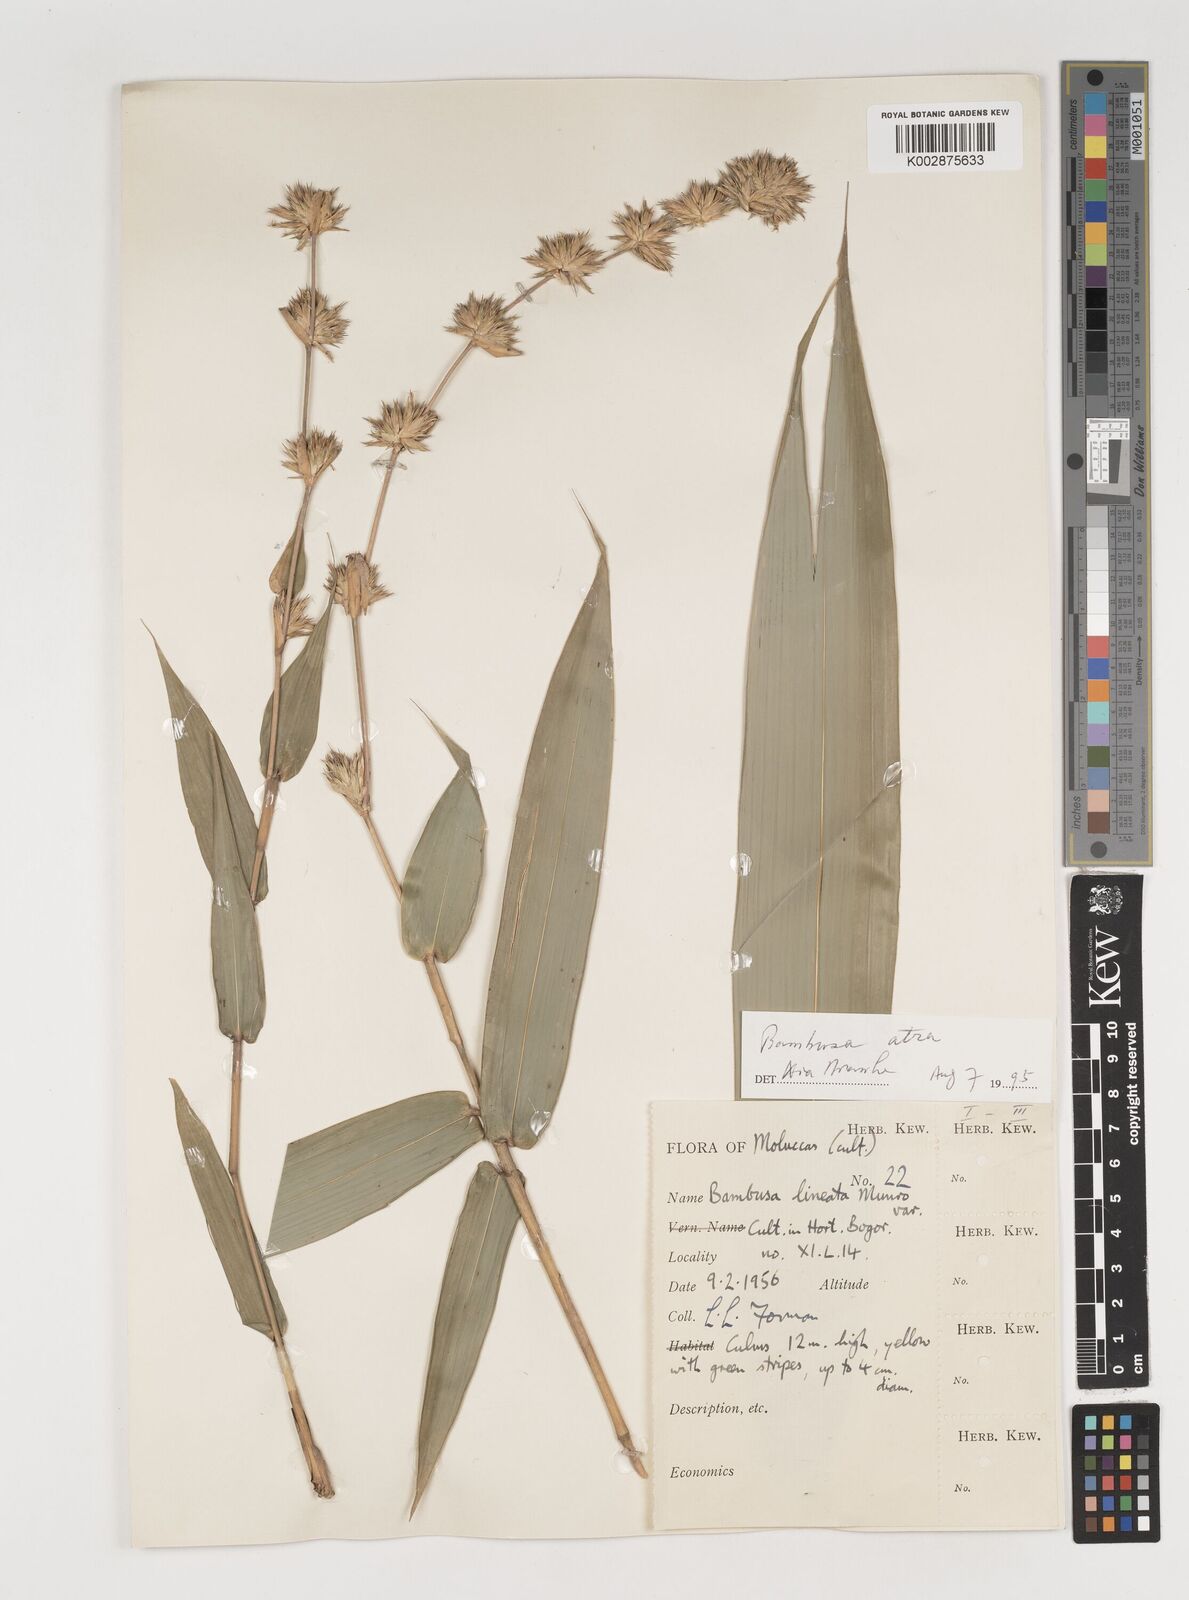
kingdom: Plantae
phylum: Tracheophyta
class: Liliopsida
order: Poales
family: Poaceae
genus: Neololeba
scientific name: Neololeba atra
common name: Cape bamboo
